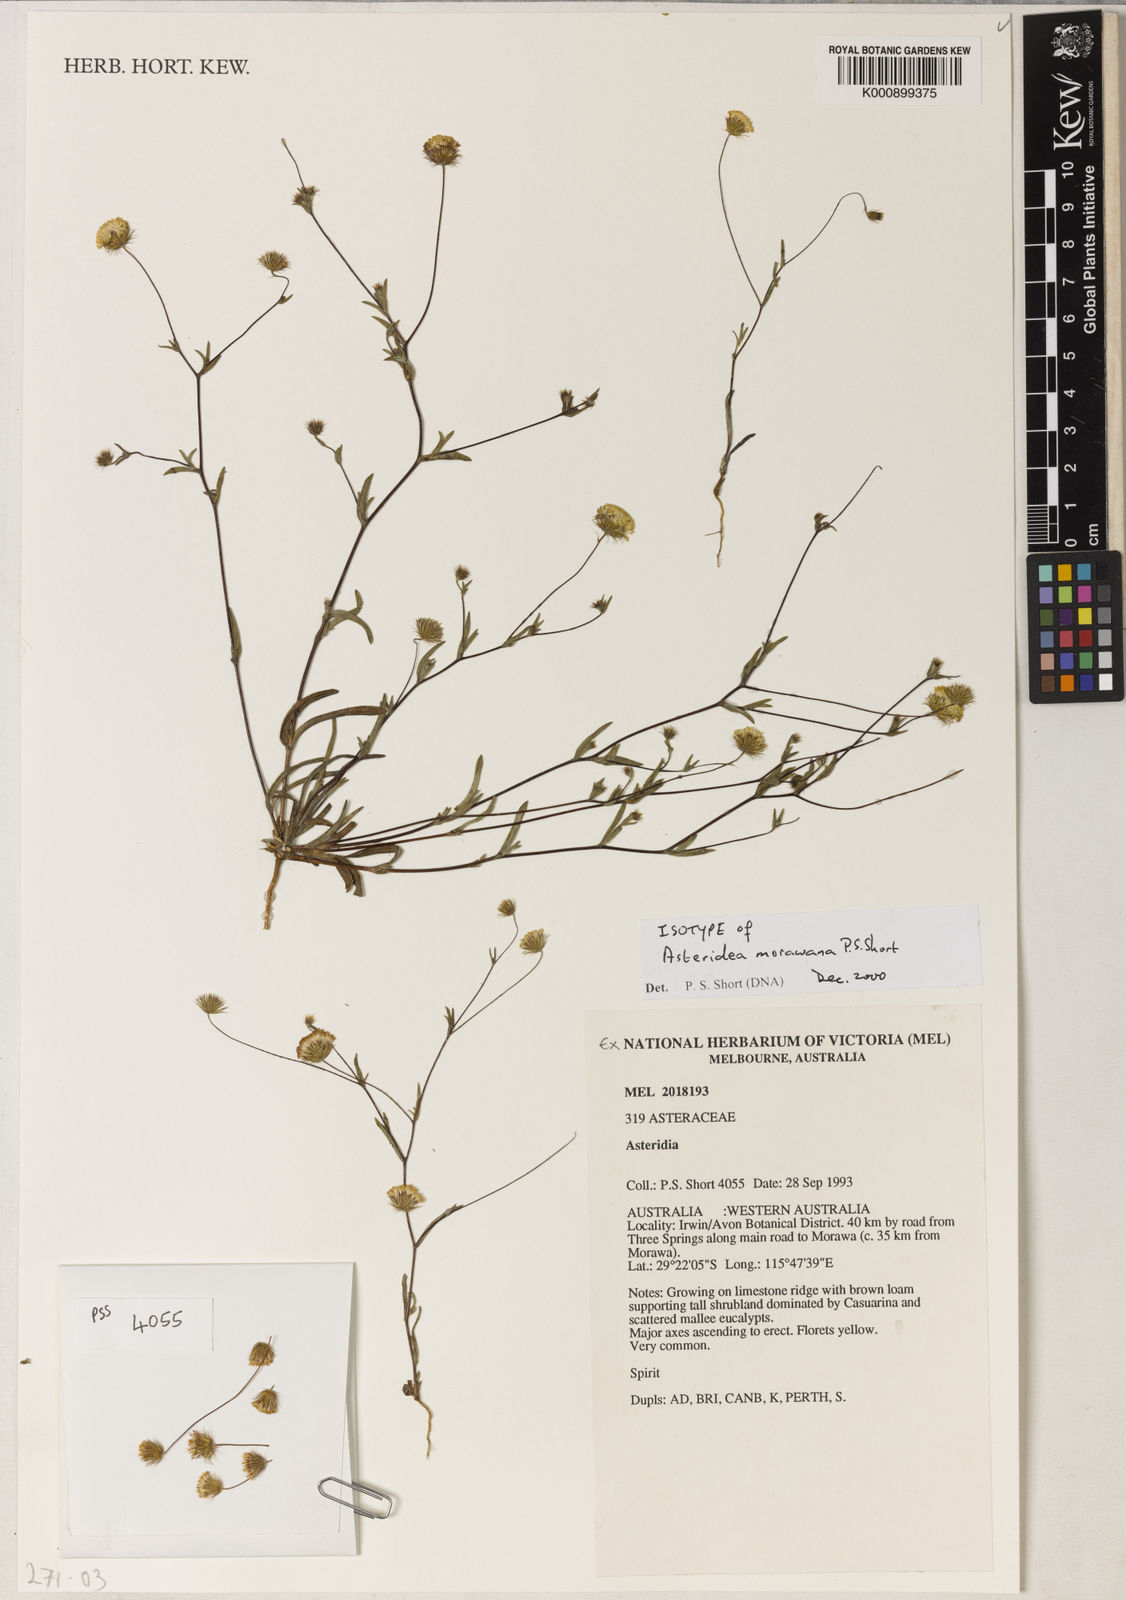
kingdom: Plantae
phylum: Tracheophyta
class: Magnoliopsida
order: Asterales
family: Asteraceae
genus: Asteridea
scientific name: Asteridea morawana
